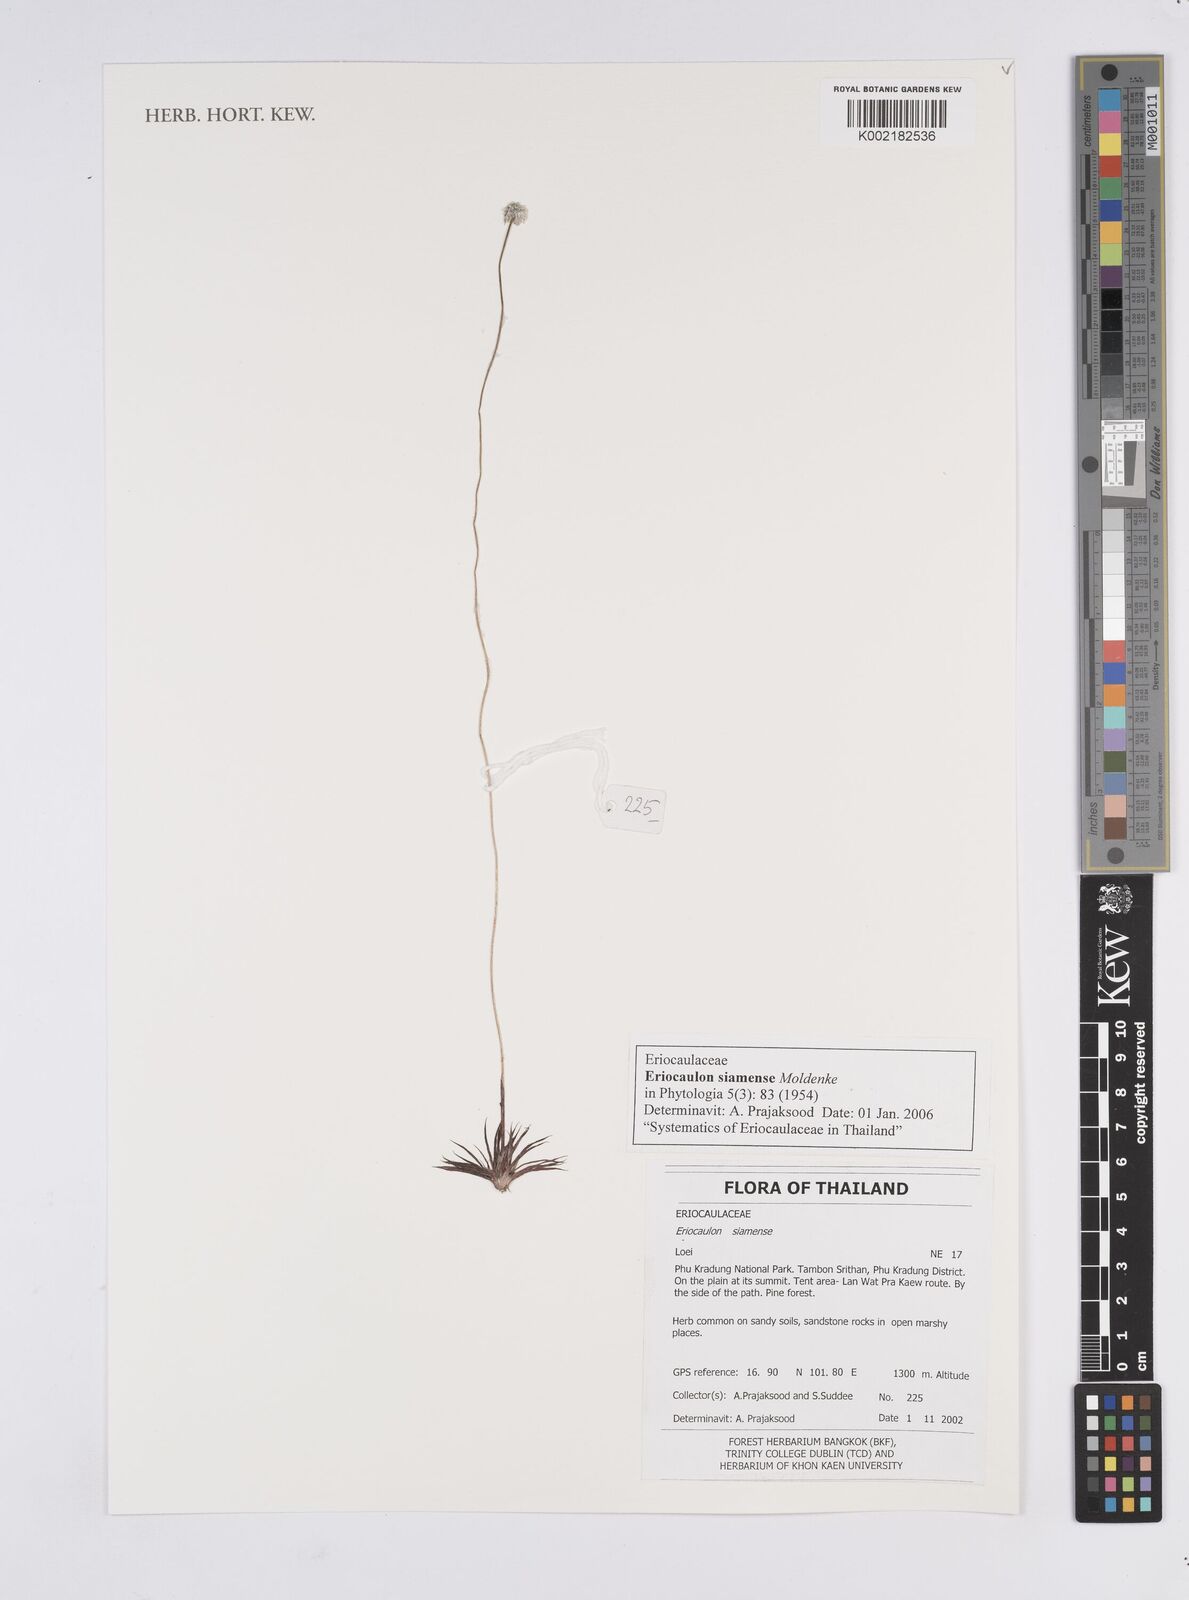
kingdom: Plantae
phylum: Tracheophyta
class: Liliopsida
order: Poales
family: Eriocaulaceae
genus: Eriocaulon
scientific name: Eriocaulon siamense
